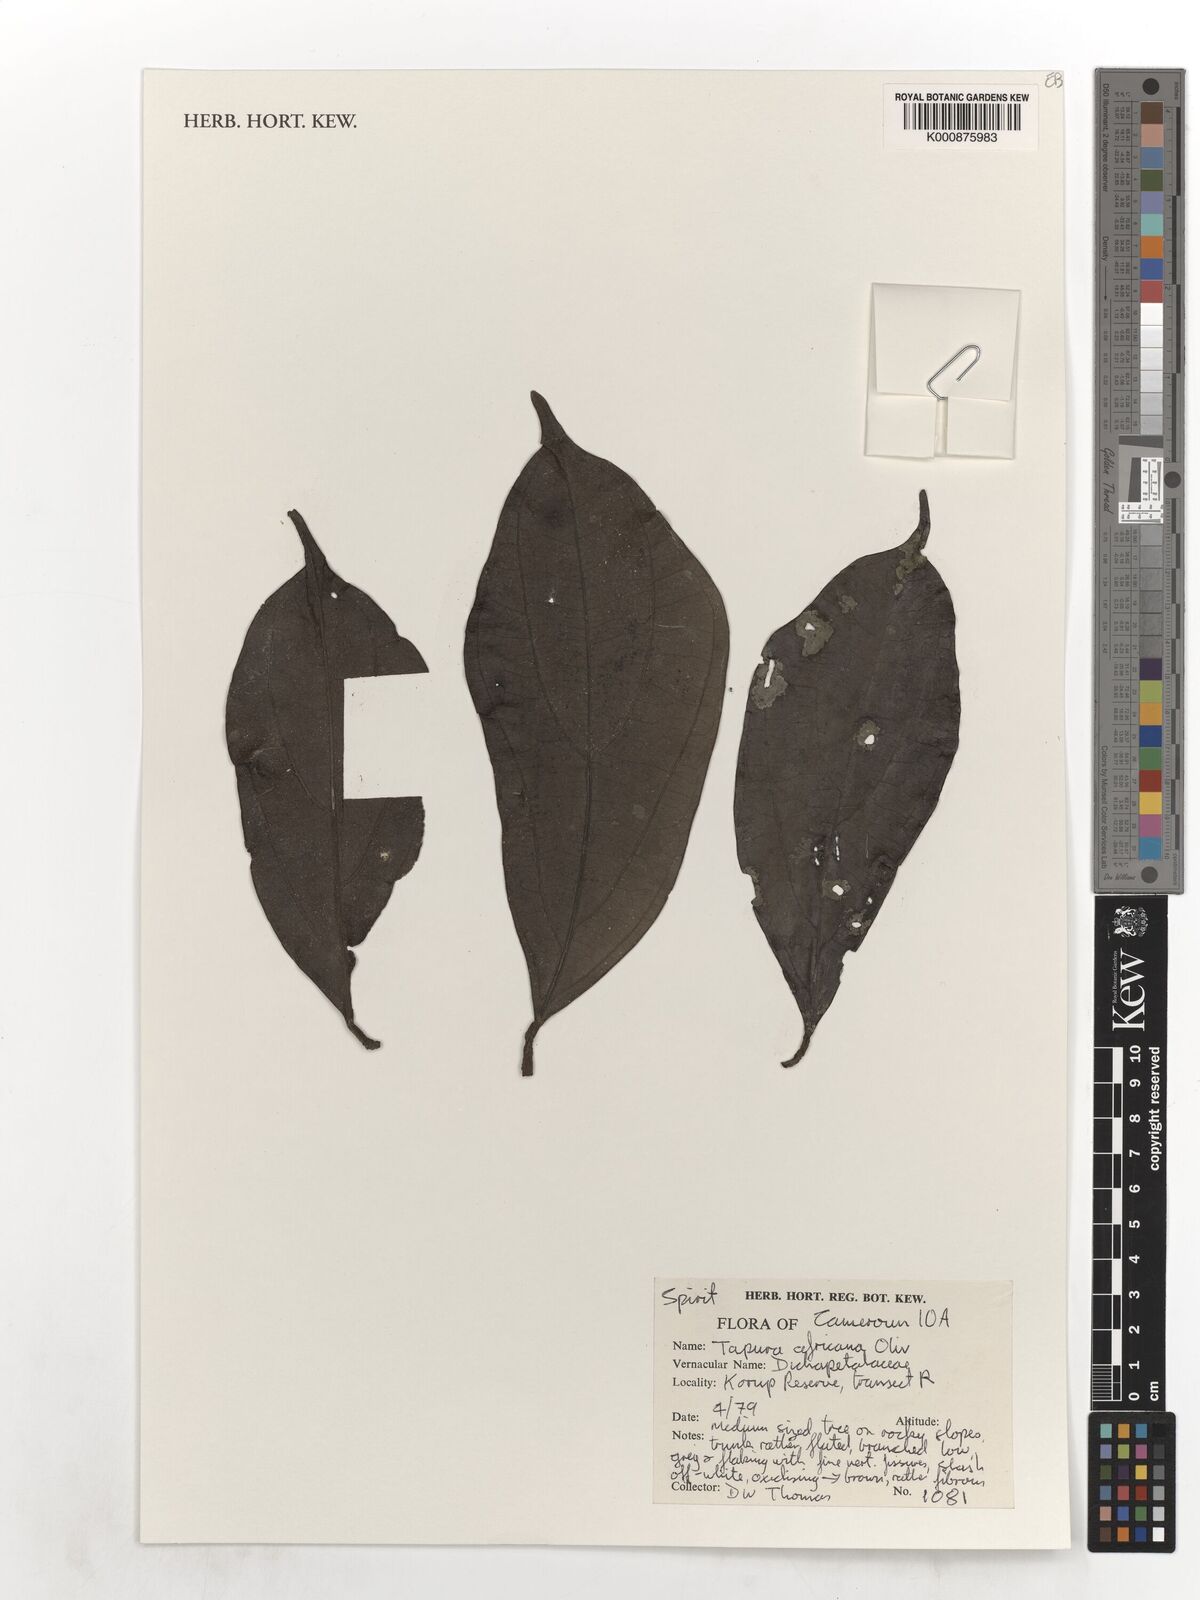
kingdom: Plantae
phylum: Tracheophyta
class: Magnoliopsida
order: Malpighiales
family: Dichapetalaceae
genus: Tapura
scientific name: Tapura africana
